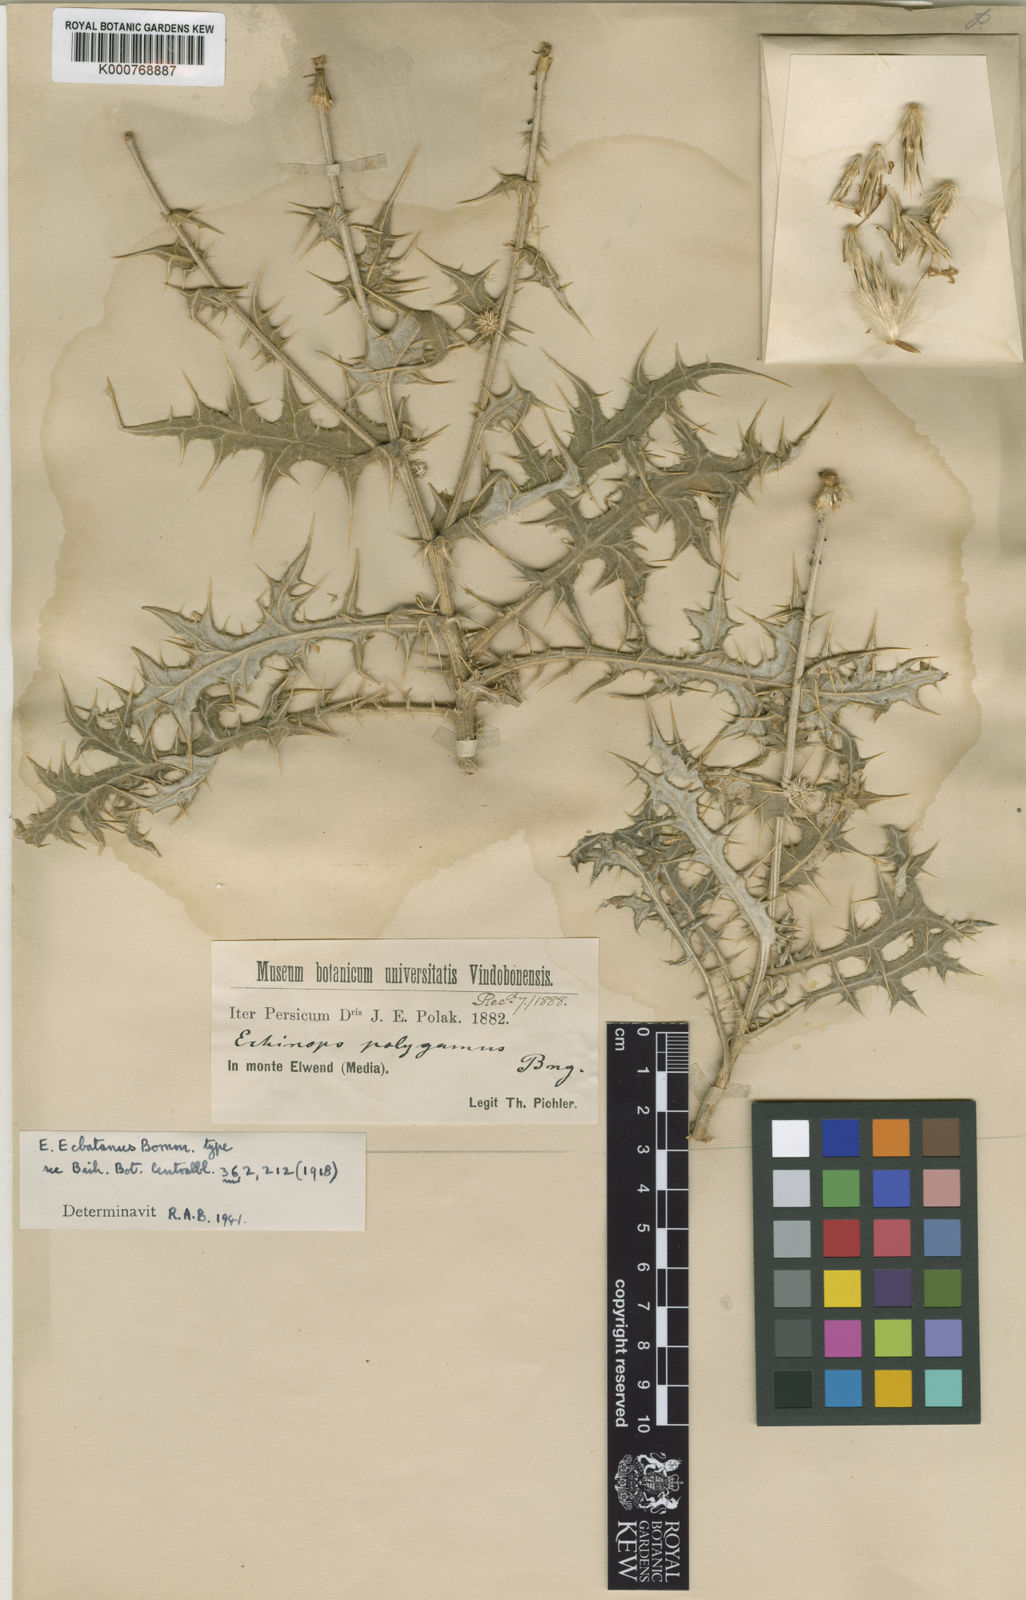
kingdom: Plantae
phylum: Tracheophyta
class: Magnoliopsida
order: Asterales
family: Asteraceae
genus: Echinops
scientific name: Echinops
